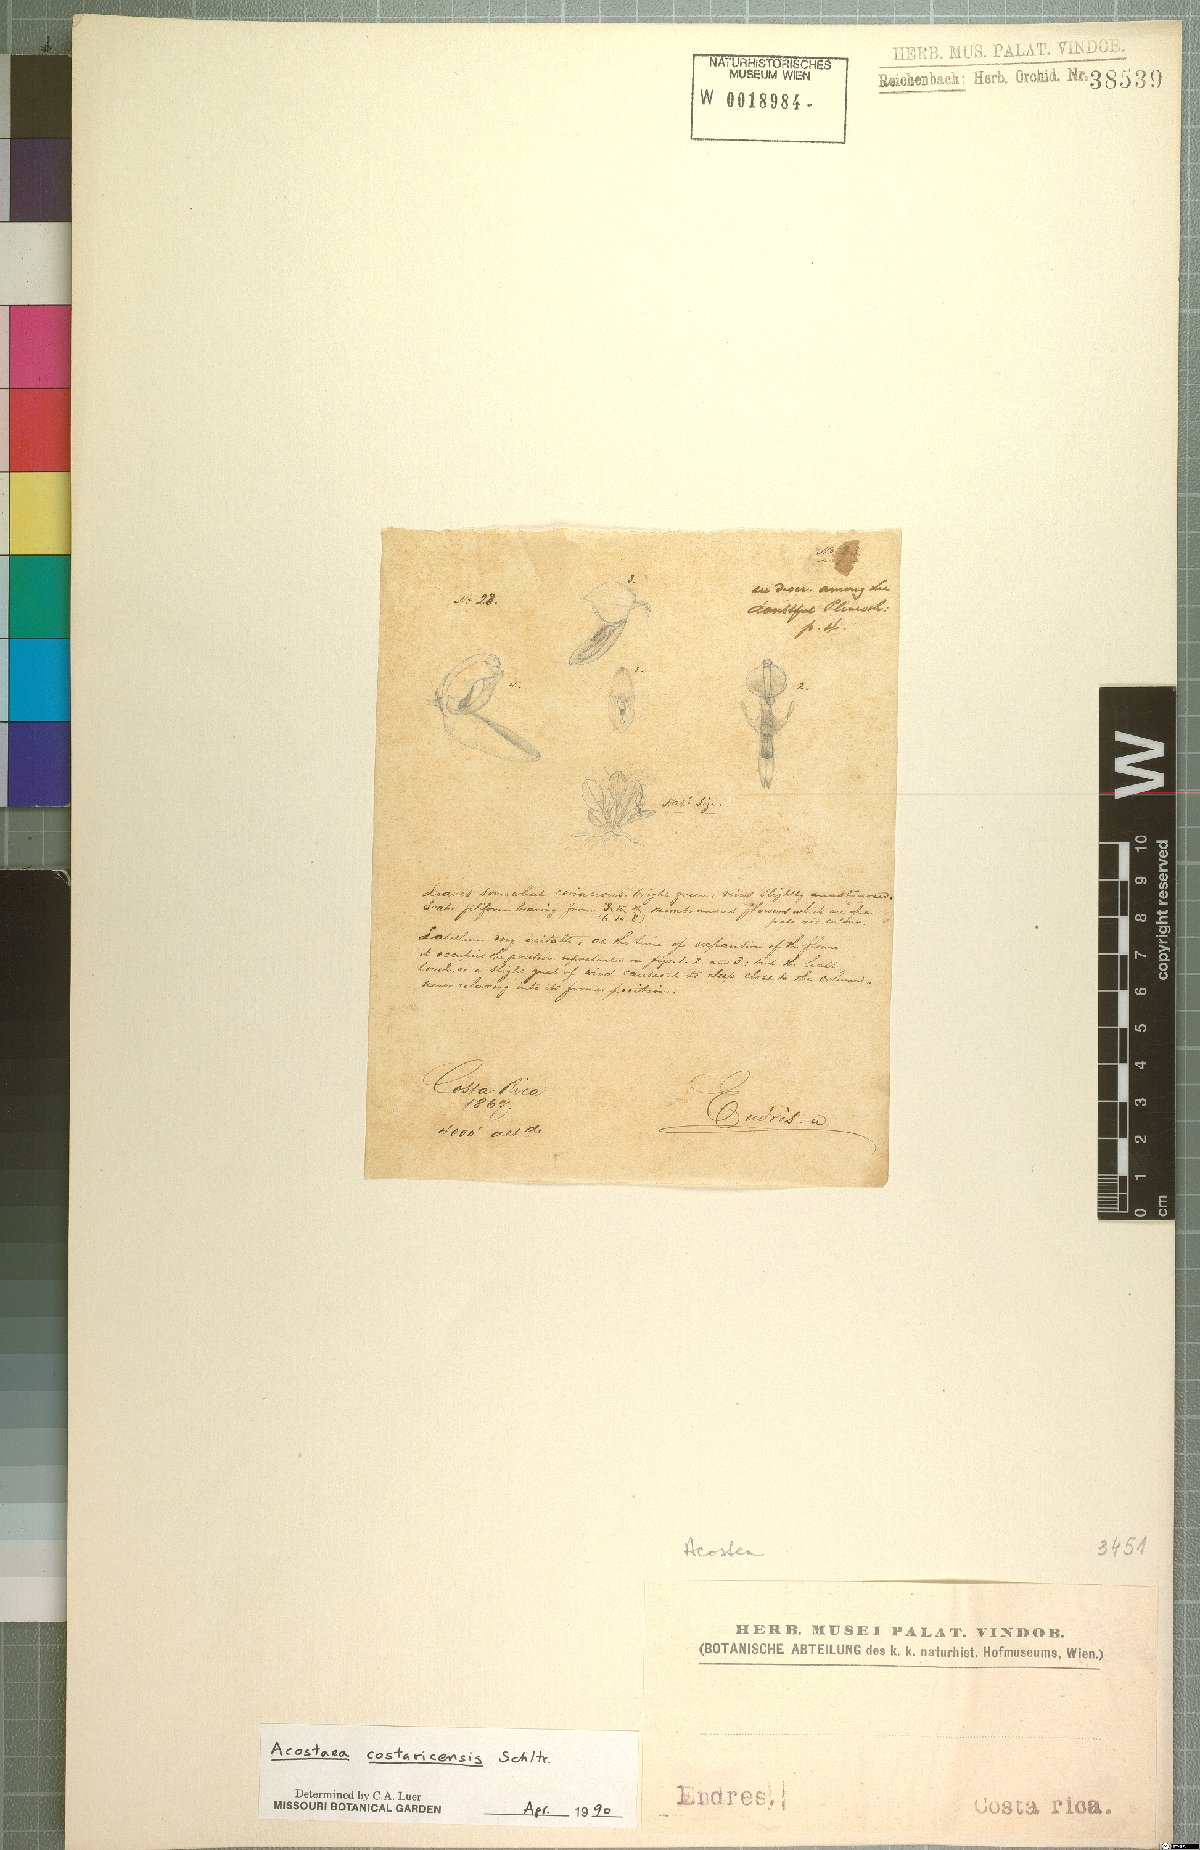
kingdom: Plantae
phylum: Tracheophyta
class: Liliopsida
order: Asparagales
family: Orchidaceae
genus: Specklinia
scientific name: Specklinia colombiana
